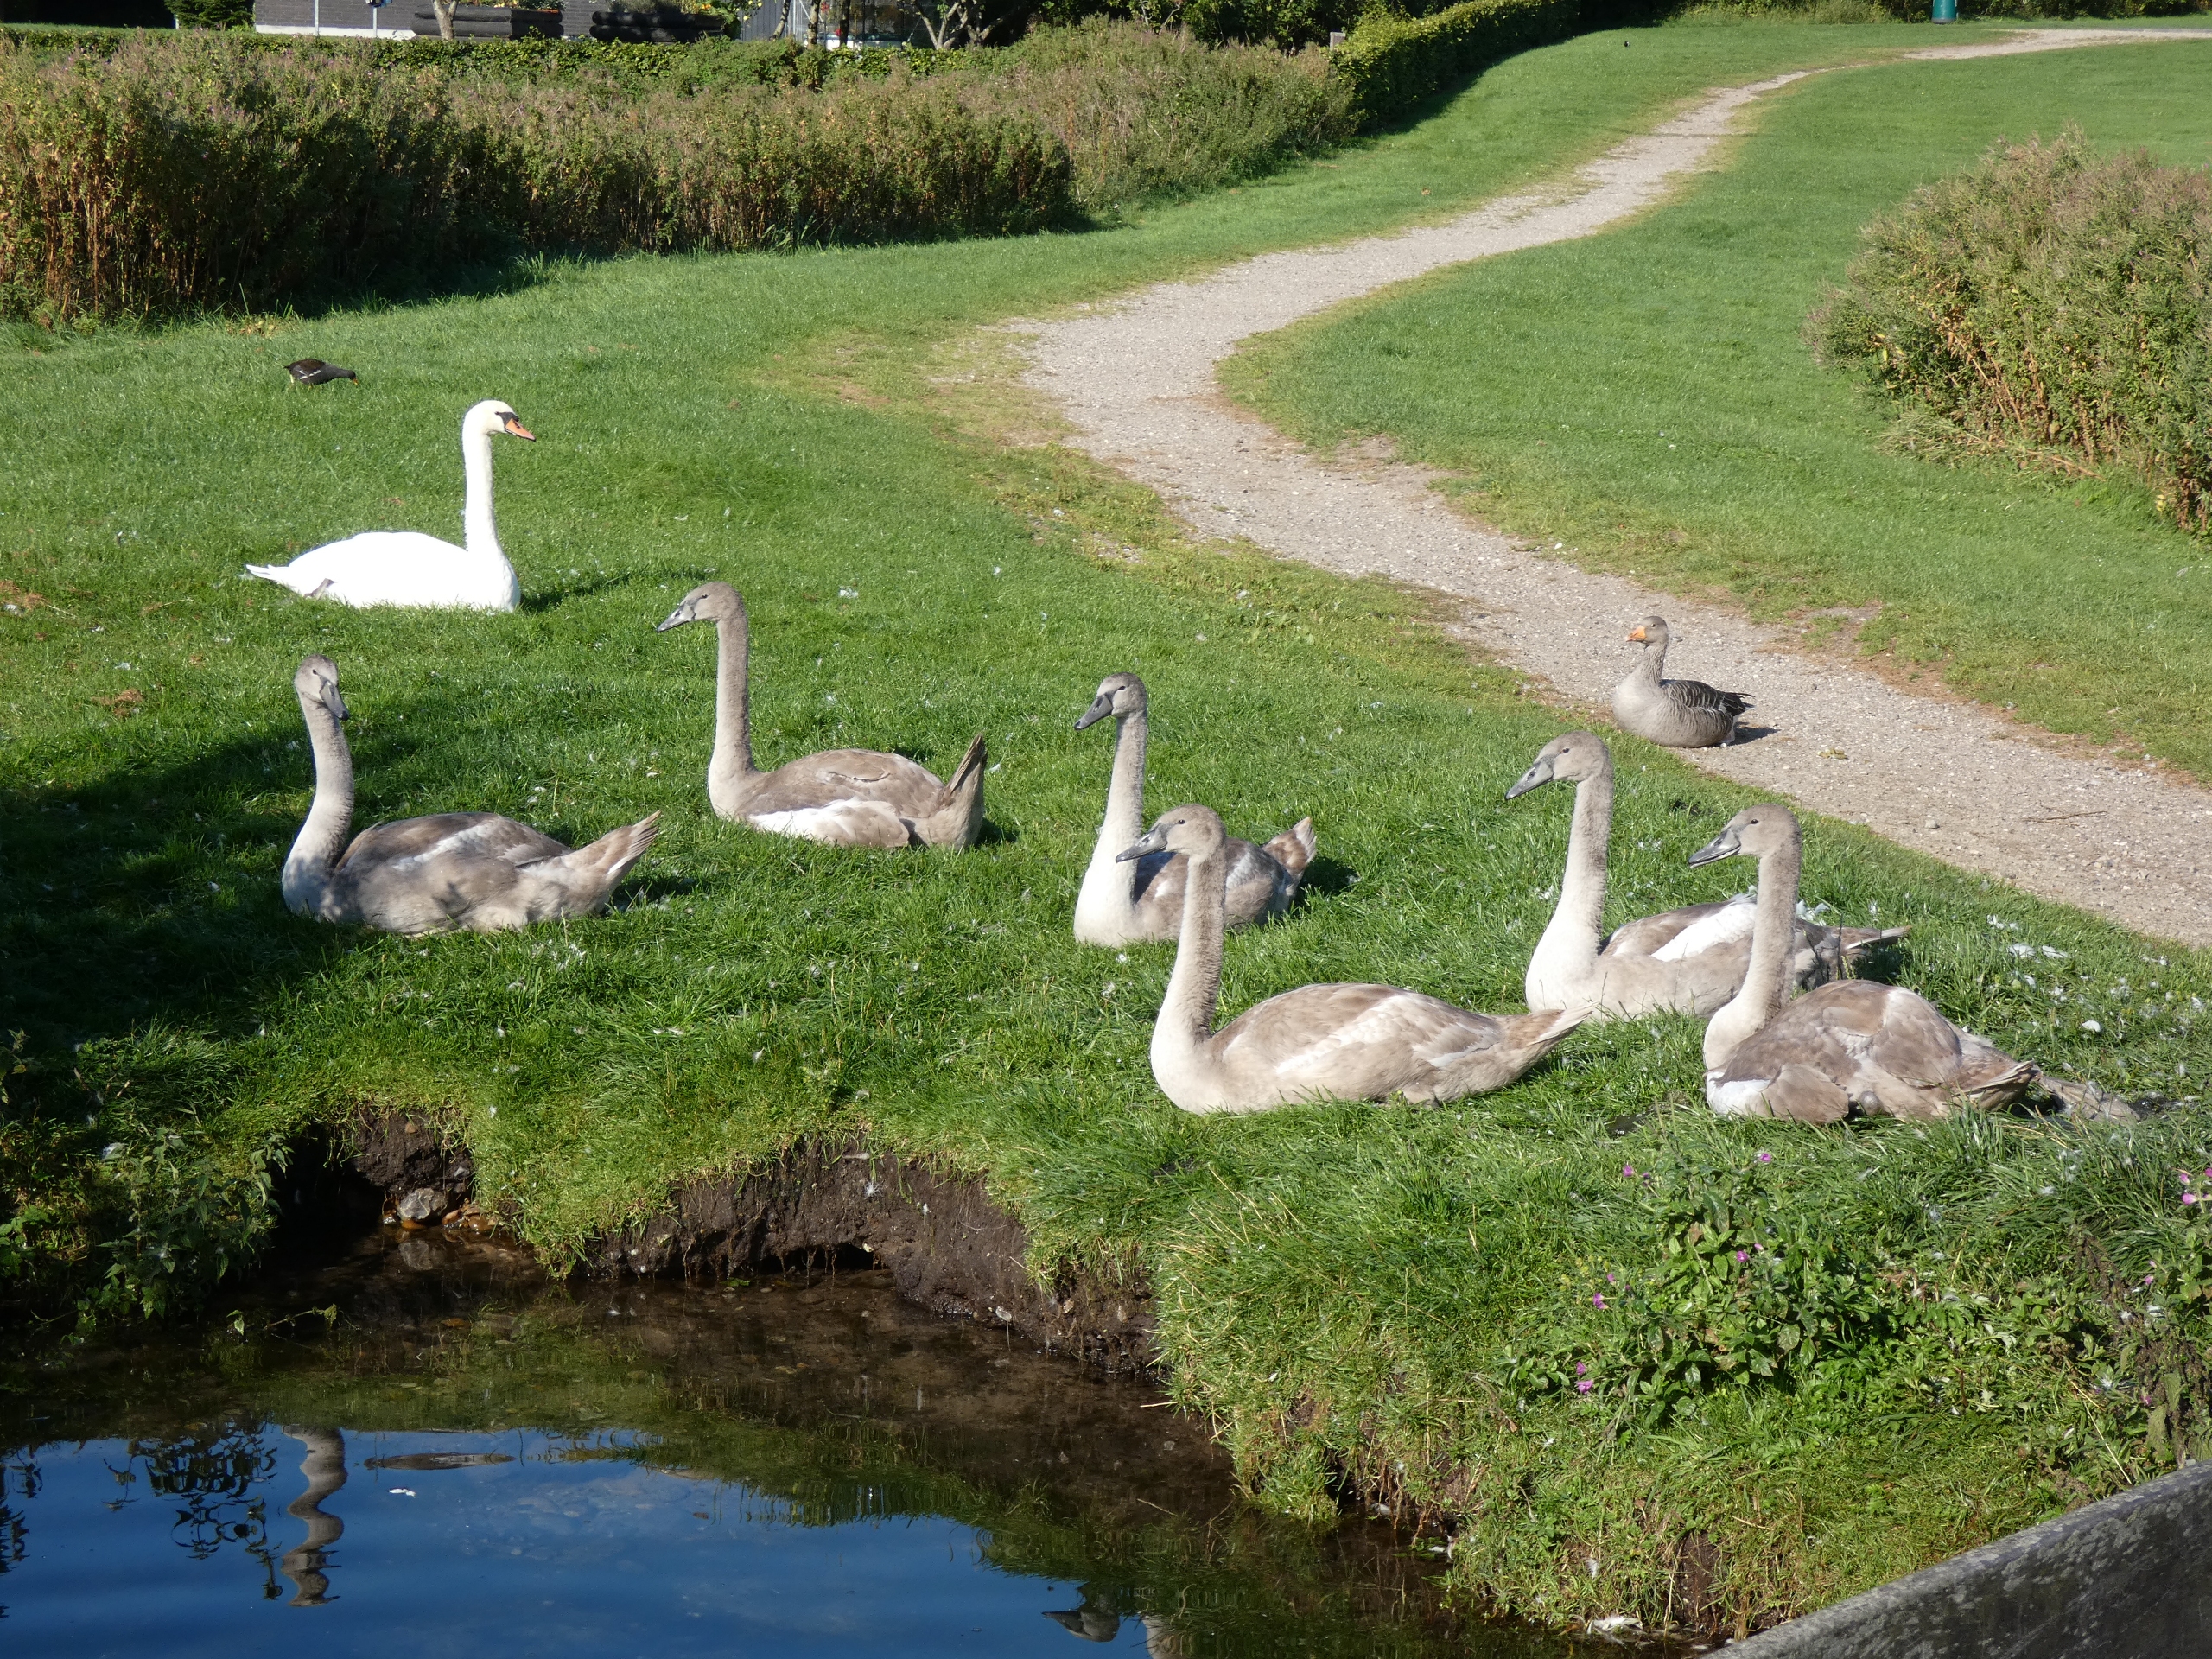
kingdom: Animalia
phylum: Chordata
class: Aves
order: Gruiformes
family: Rallidae
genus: Gallinula
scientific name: Gallinula chloropus
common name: Grønbenet rørhøne
